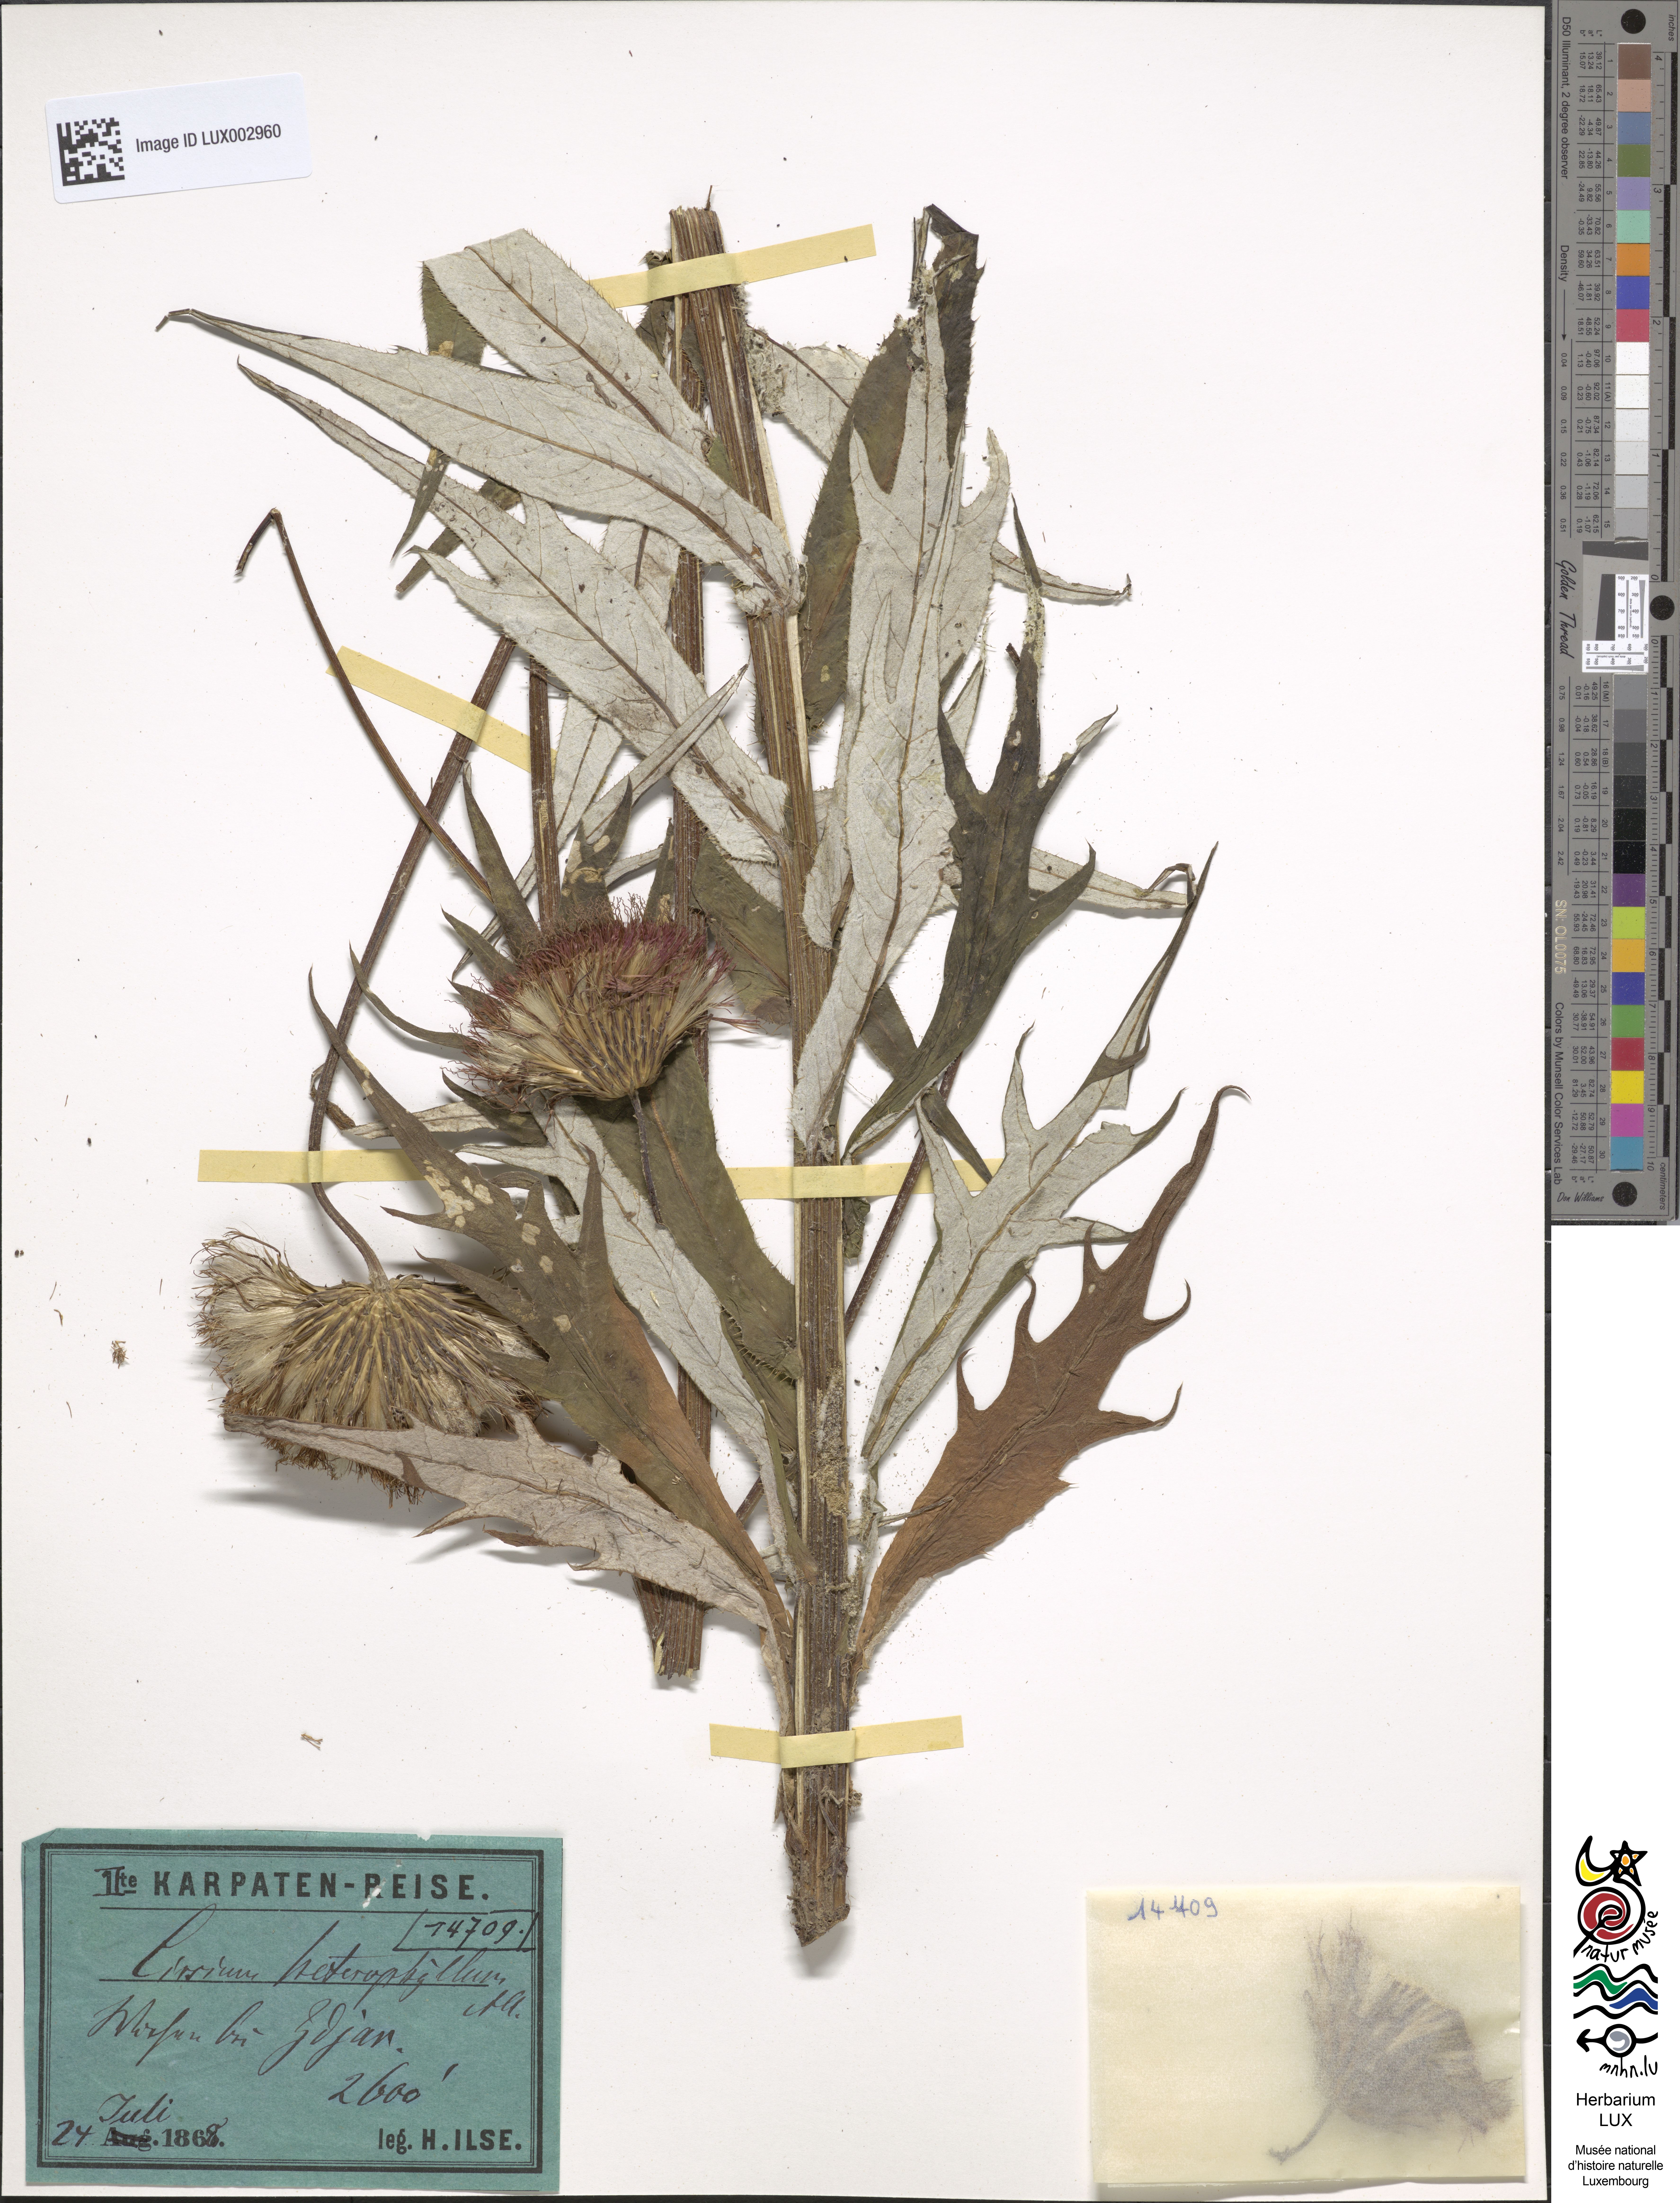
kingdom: Plantae
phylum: Tracheophyta
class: Magnoliopsida
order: Asterales
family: Asteraceae
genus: Cirsium
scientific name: Cirsium heterophyllum
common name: Melancholy thistle
